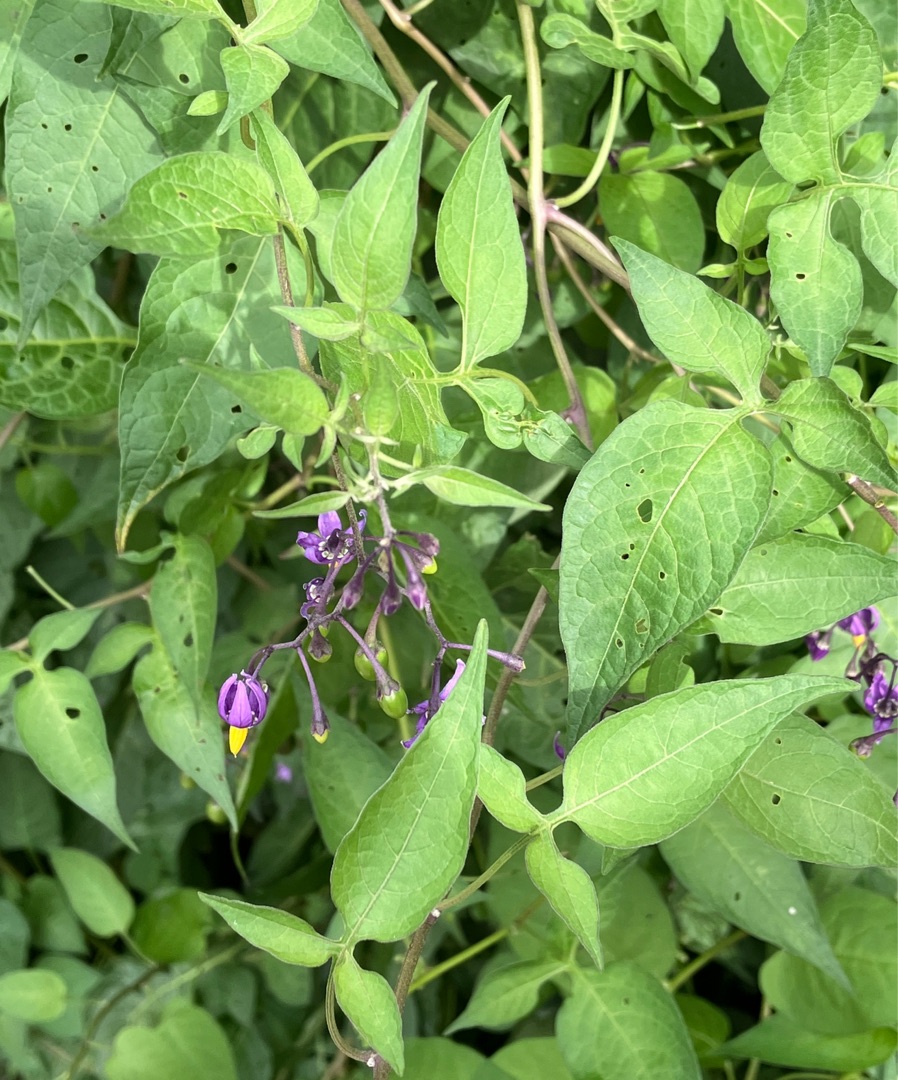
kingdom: Plantae
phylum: Tracheophyta
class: Magnoliopsida
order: Solanales
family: Solanaceae
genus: Solanum
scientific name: Solanum dulcamara
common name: Bittersød natskygge
